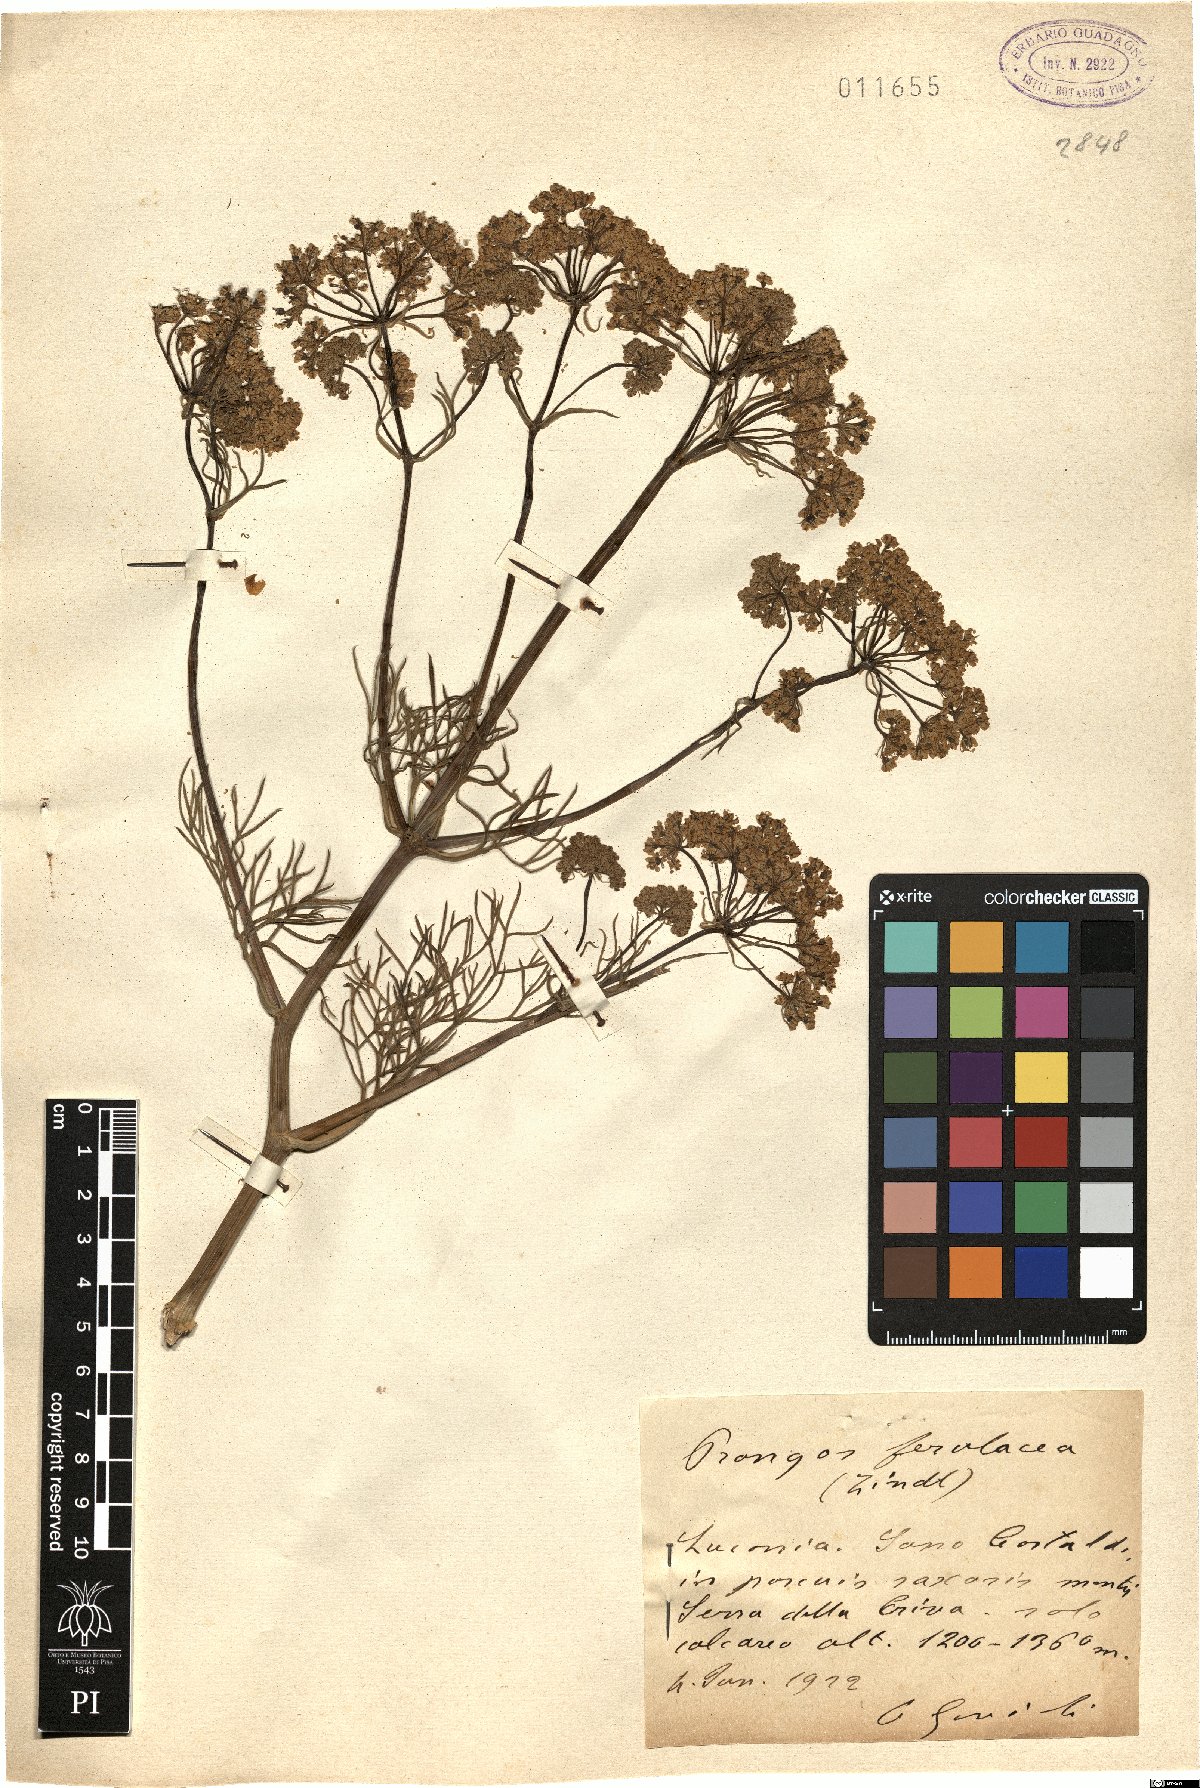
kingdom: Plantae
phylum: Tracheophyta
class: Magnoliopsida
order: Apiales
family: Apiaceae
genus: Prangos
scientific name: Prangos ferulacea
